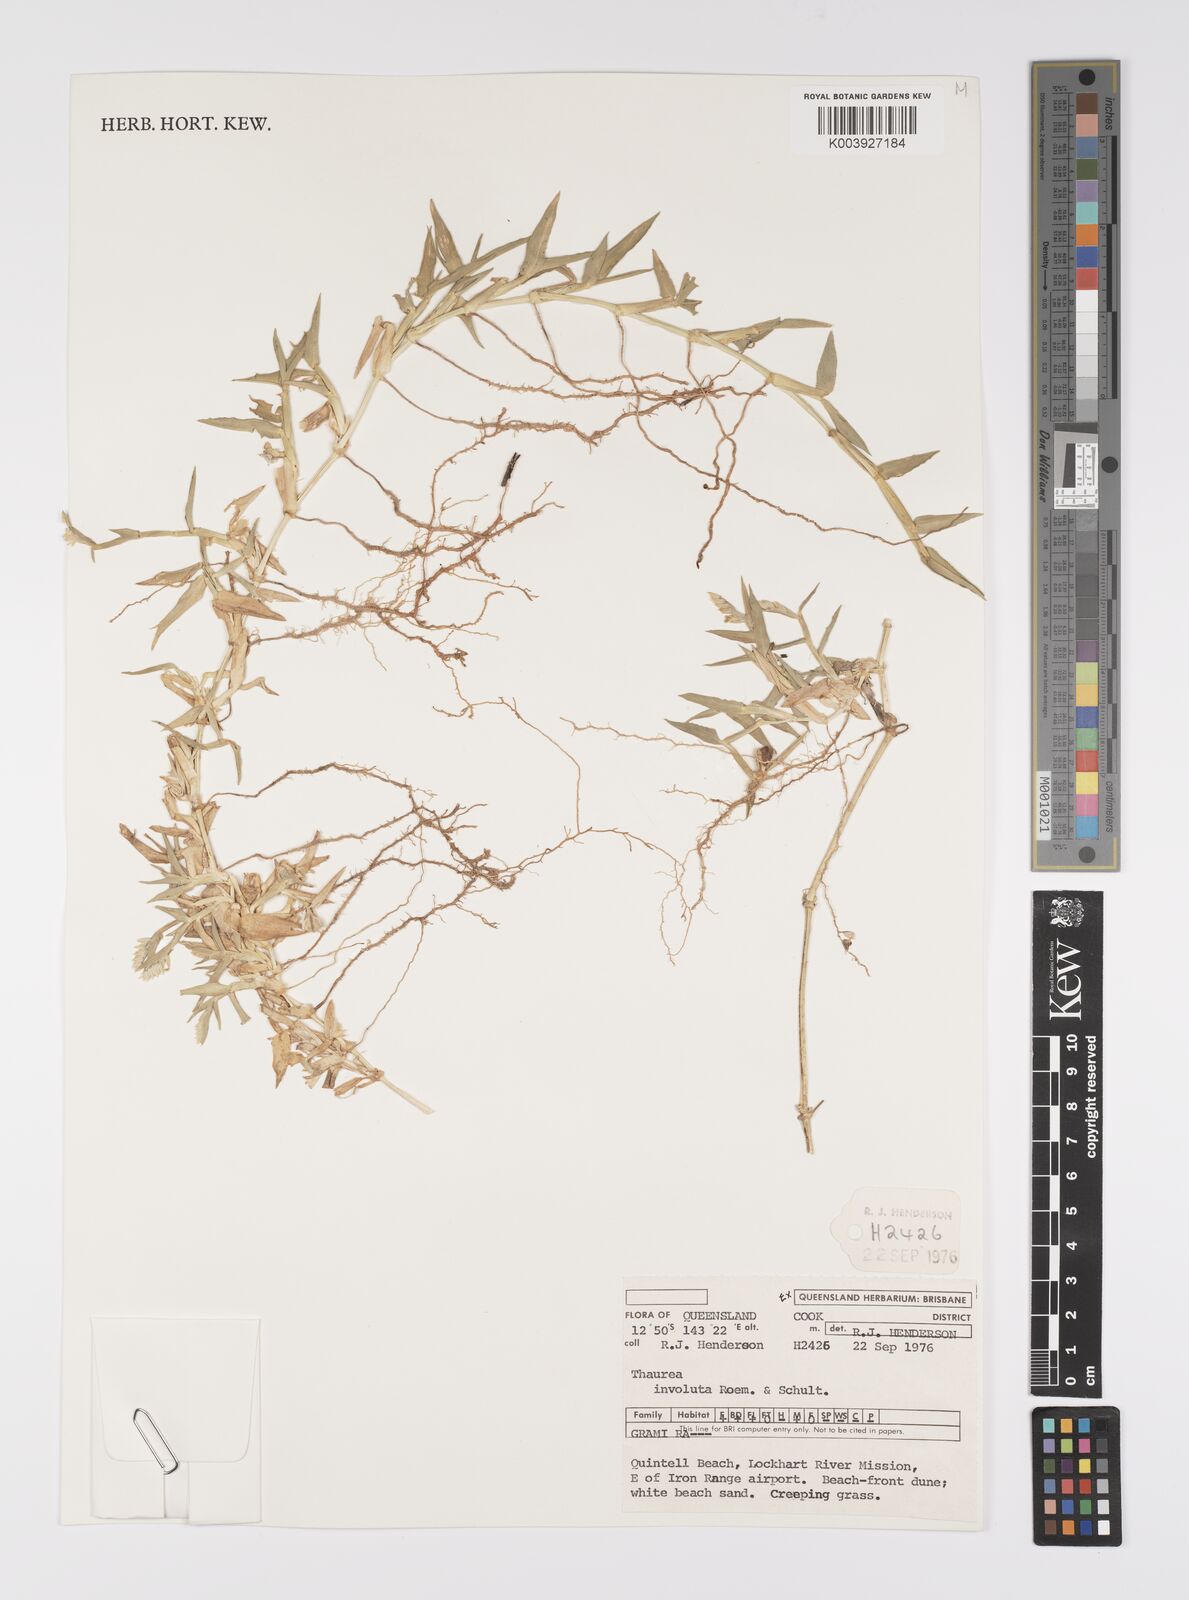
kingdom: Plantae
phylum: Tracheophyta
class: Liliopsida
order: Poales
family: Poaceae
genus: Thuarea
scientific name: Thuarea involuta
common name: Tropical beach grass
